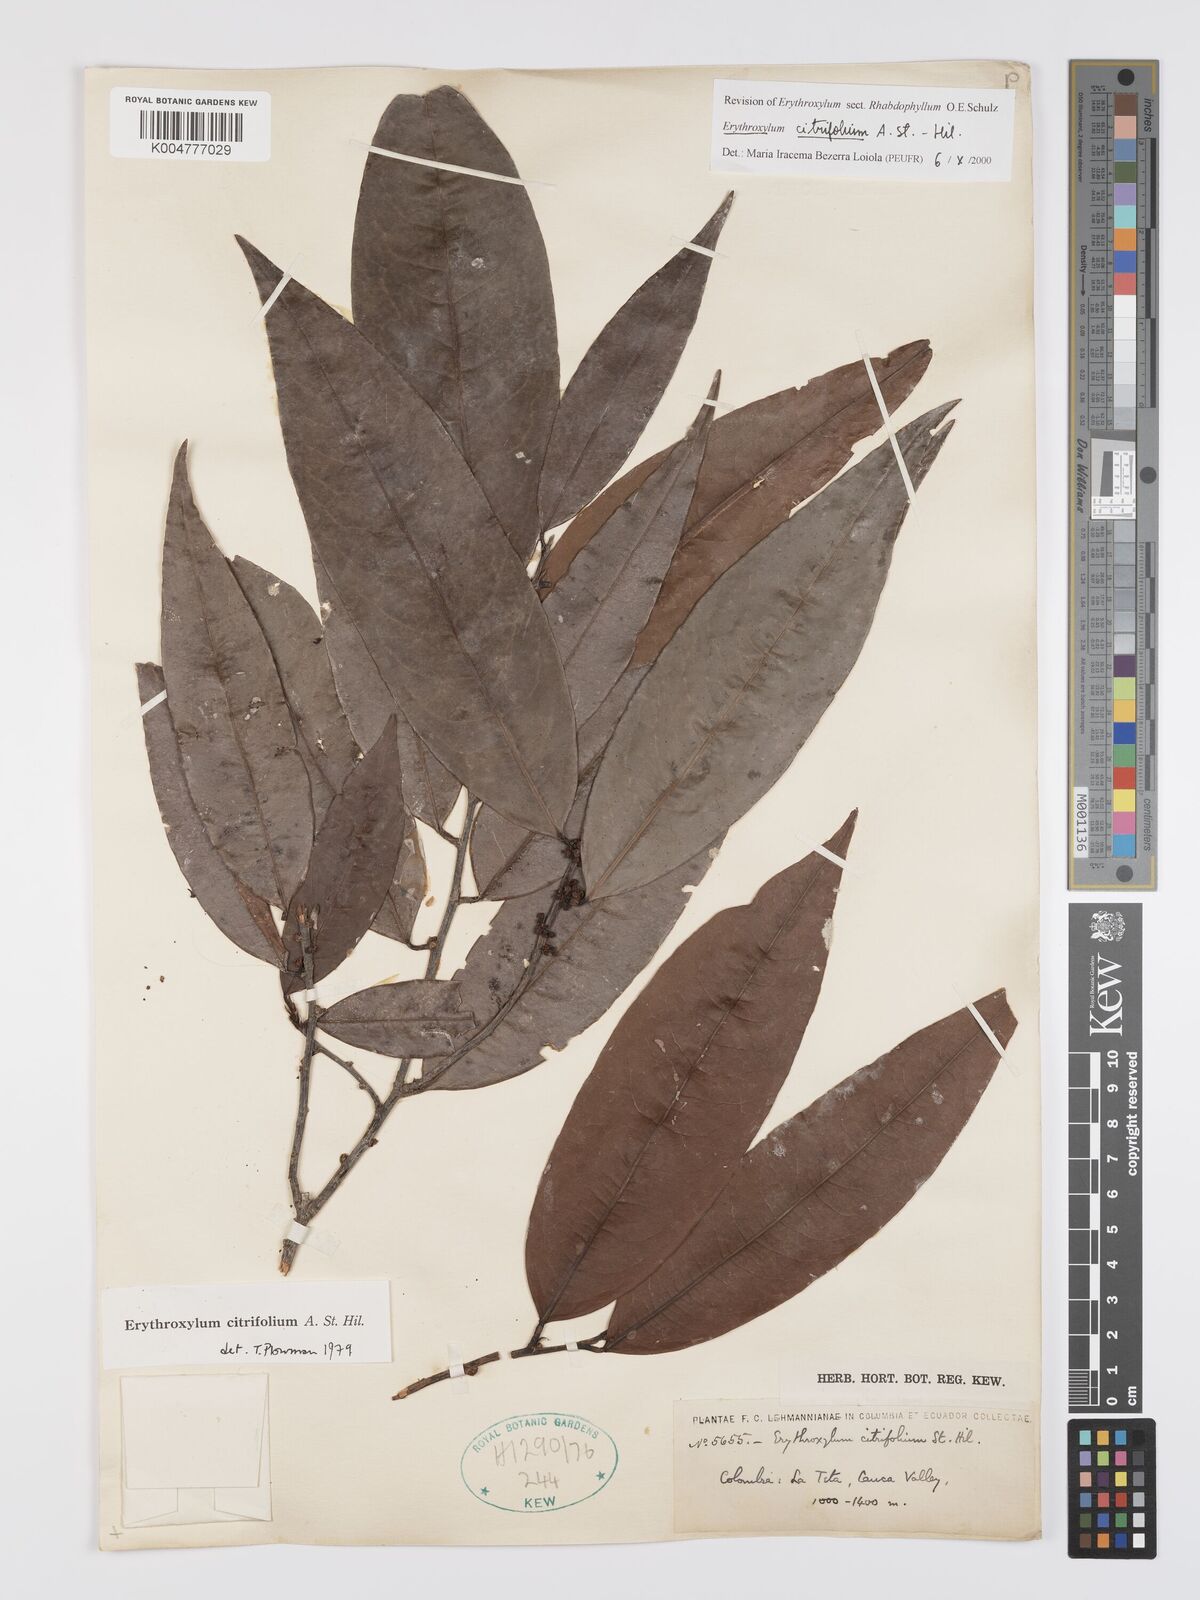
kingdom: Plantae
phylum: Tracheophyta
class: Magnoliopsida
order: Malpighiales
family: Erythroxylaceae
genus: Erythroxylum
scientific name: Erythroxylum citrifolium
